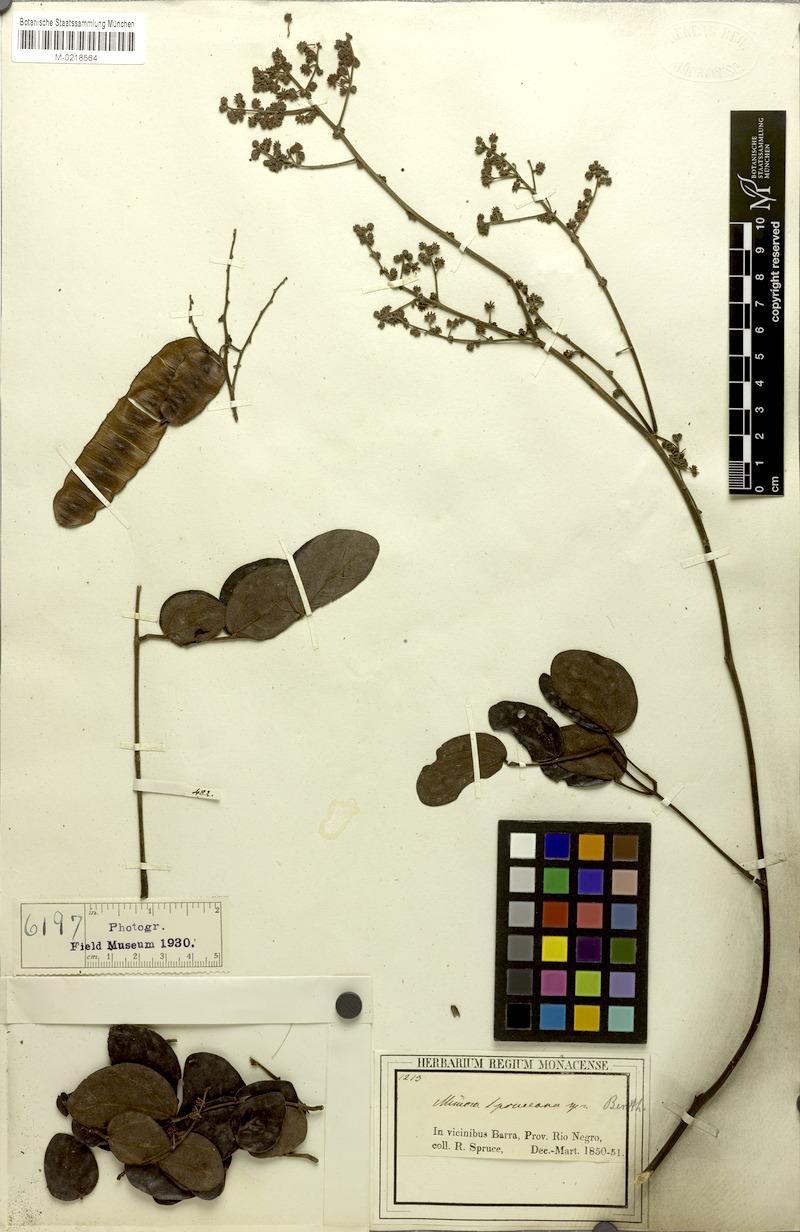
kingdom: Plantae
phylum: Tracheophyta
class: Magnoliopsida
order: Fabales
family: Fabaceae
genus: Mimosa
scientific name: Mimosa guilandinae
